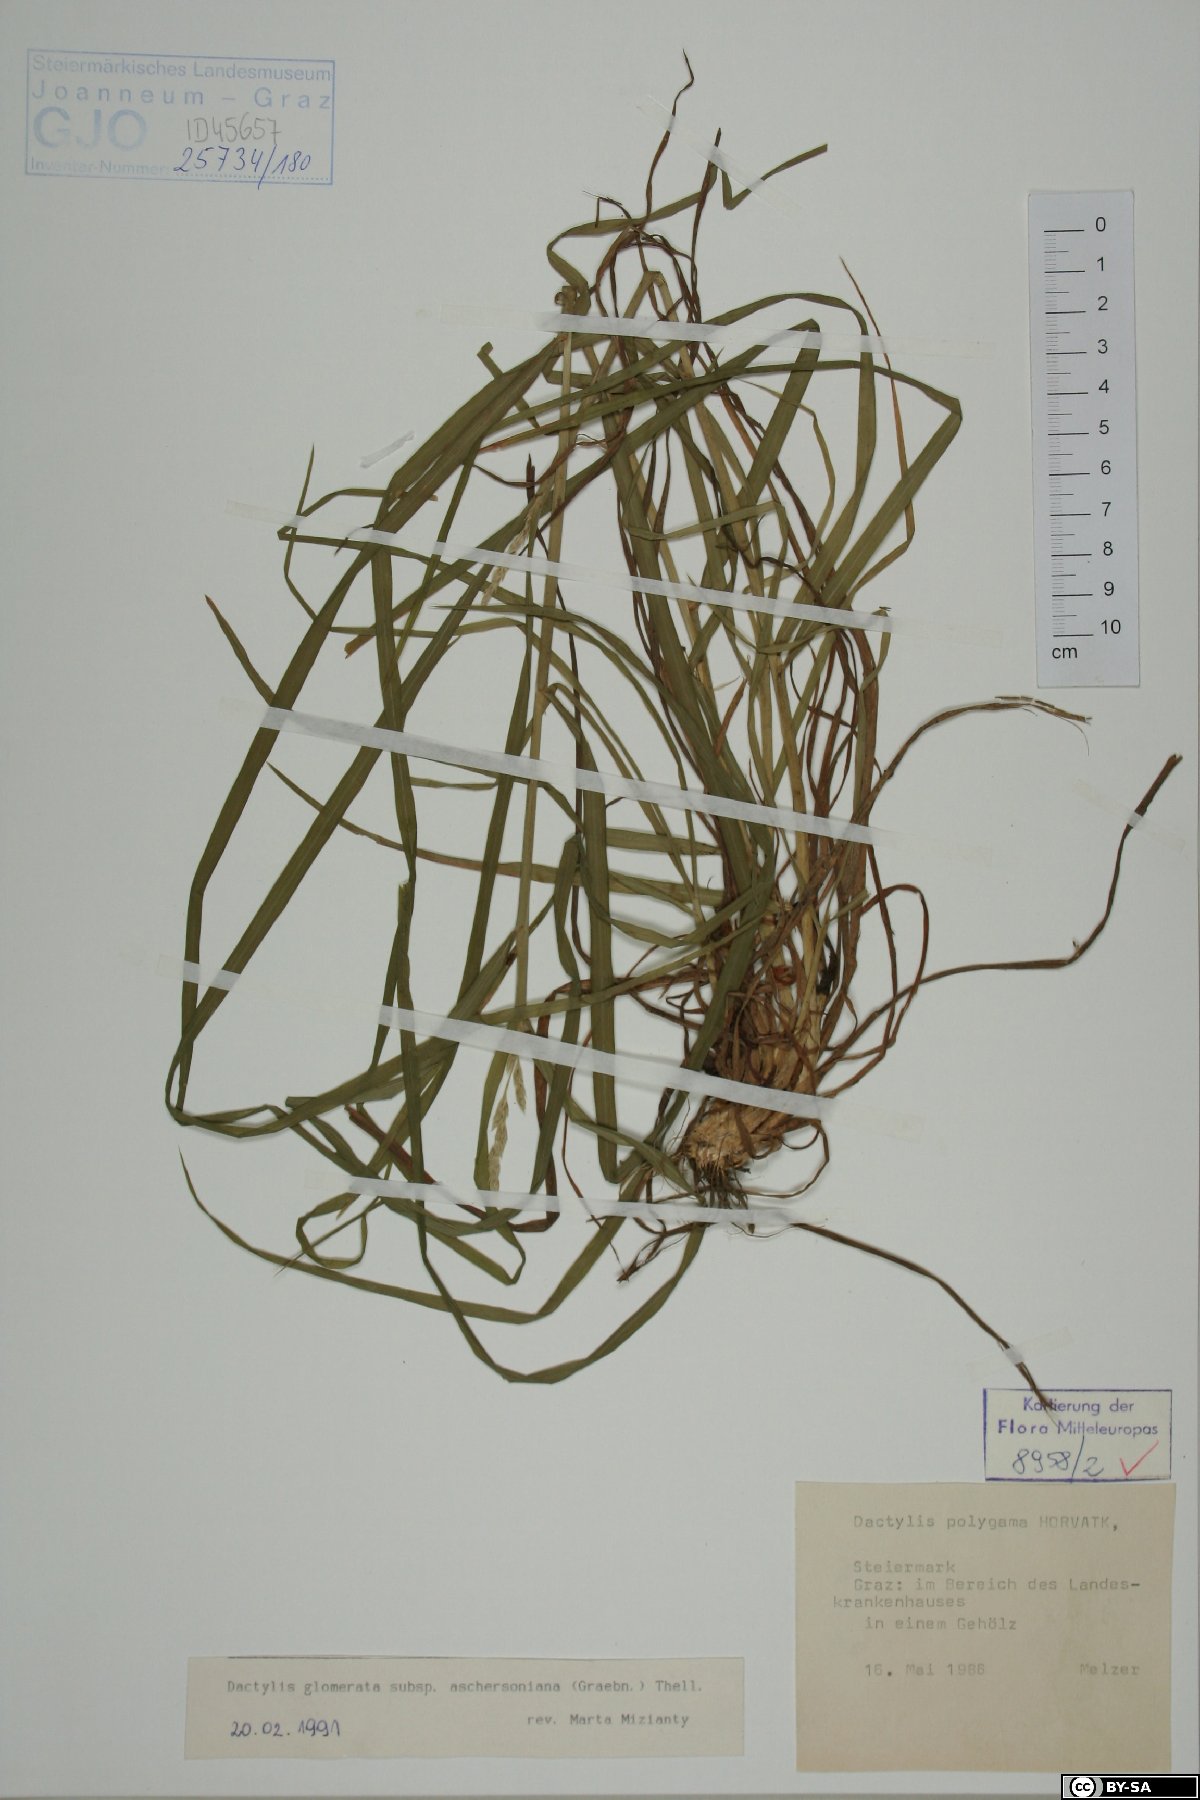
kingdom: Plantae
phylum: Tracheophyta
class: Liliopsida
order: Poales
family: Poaceae
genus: Dactylis
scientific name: Dactylis glomerata
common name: Orchardgrass
